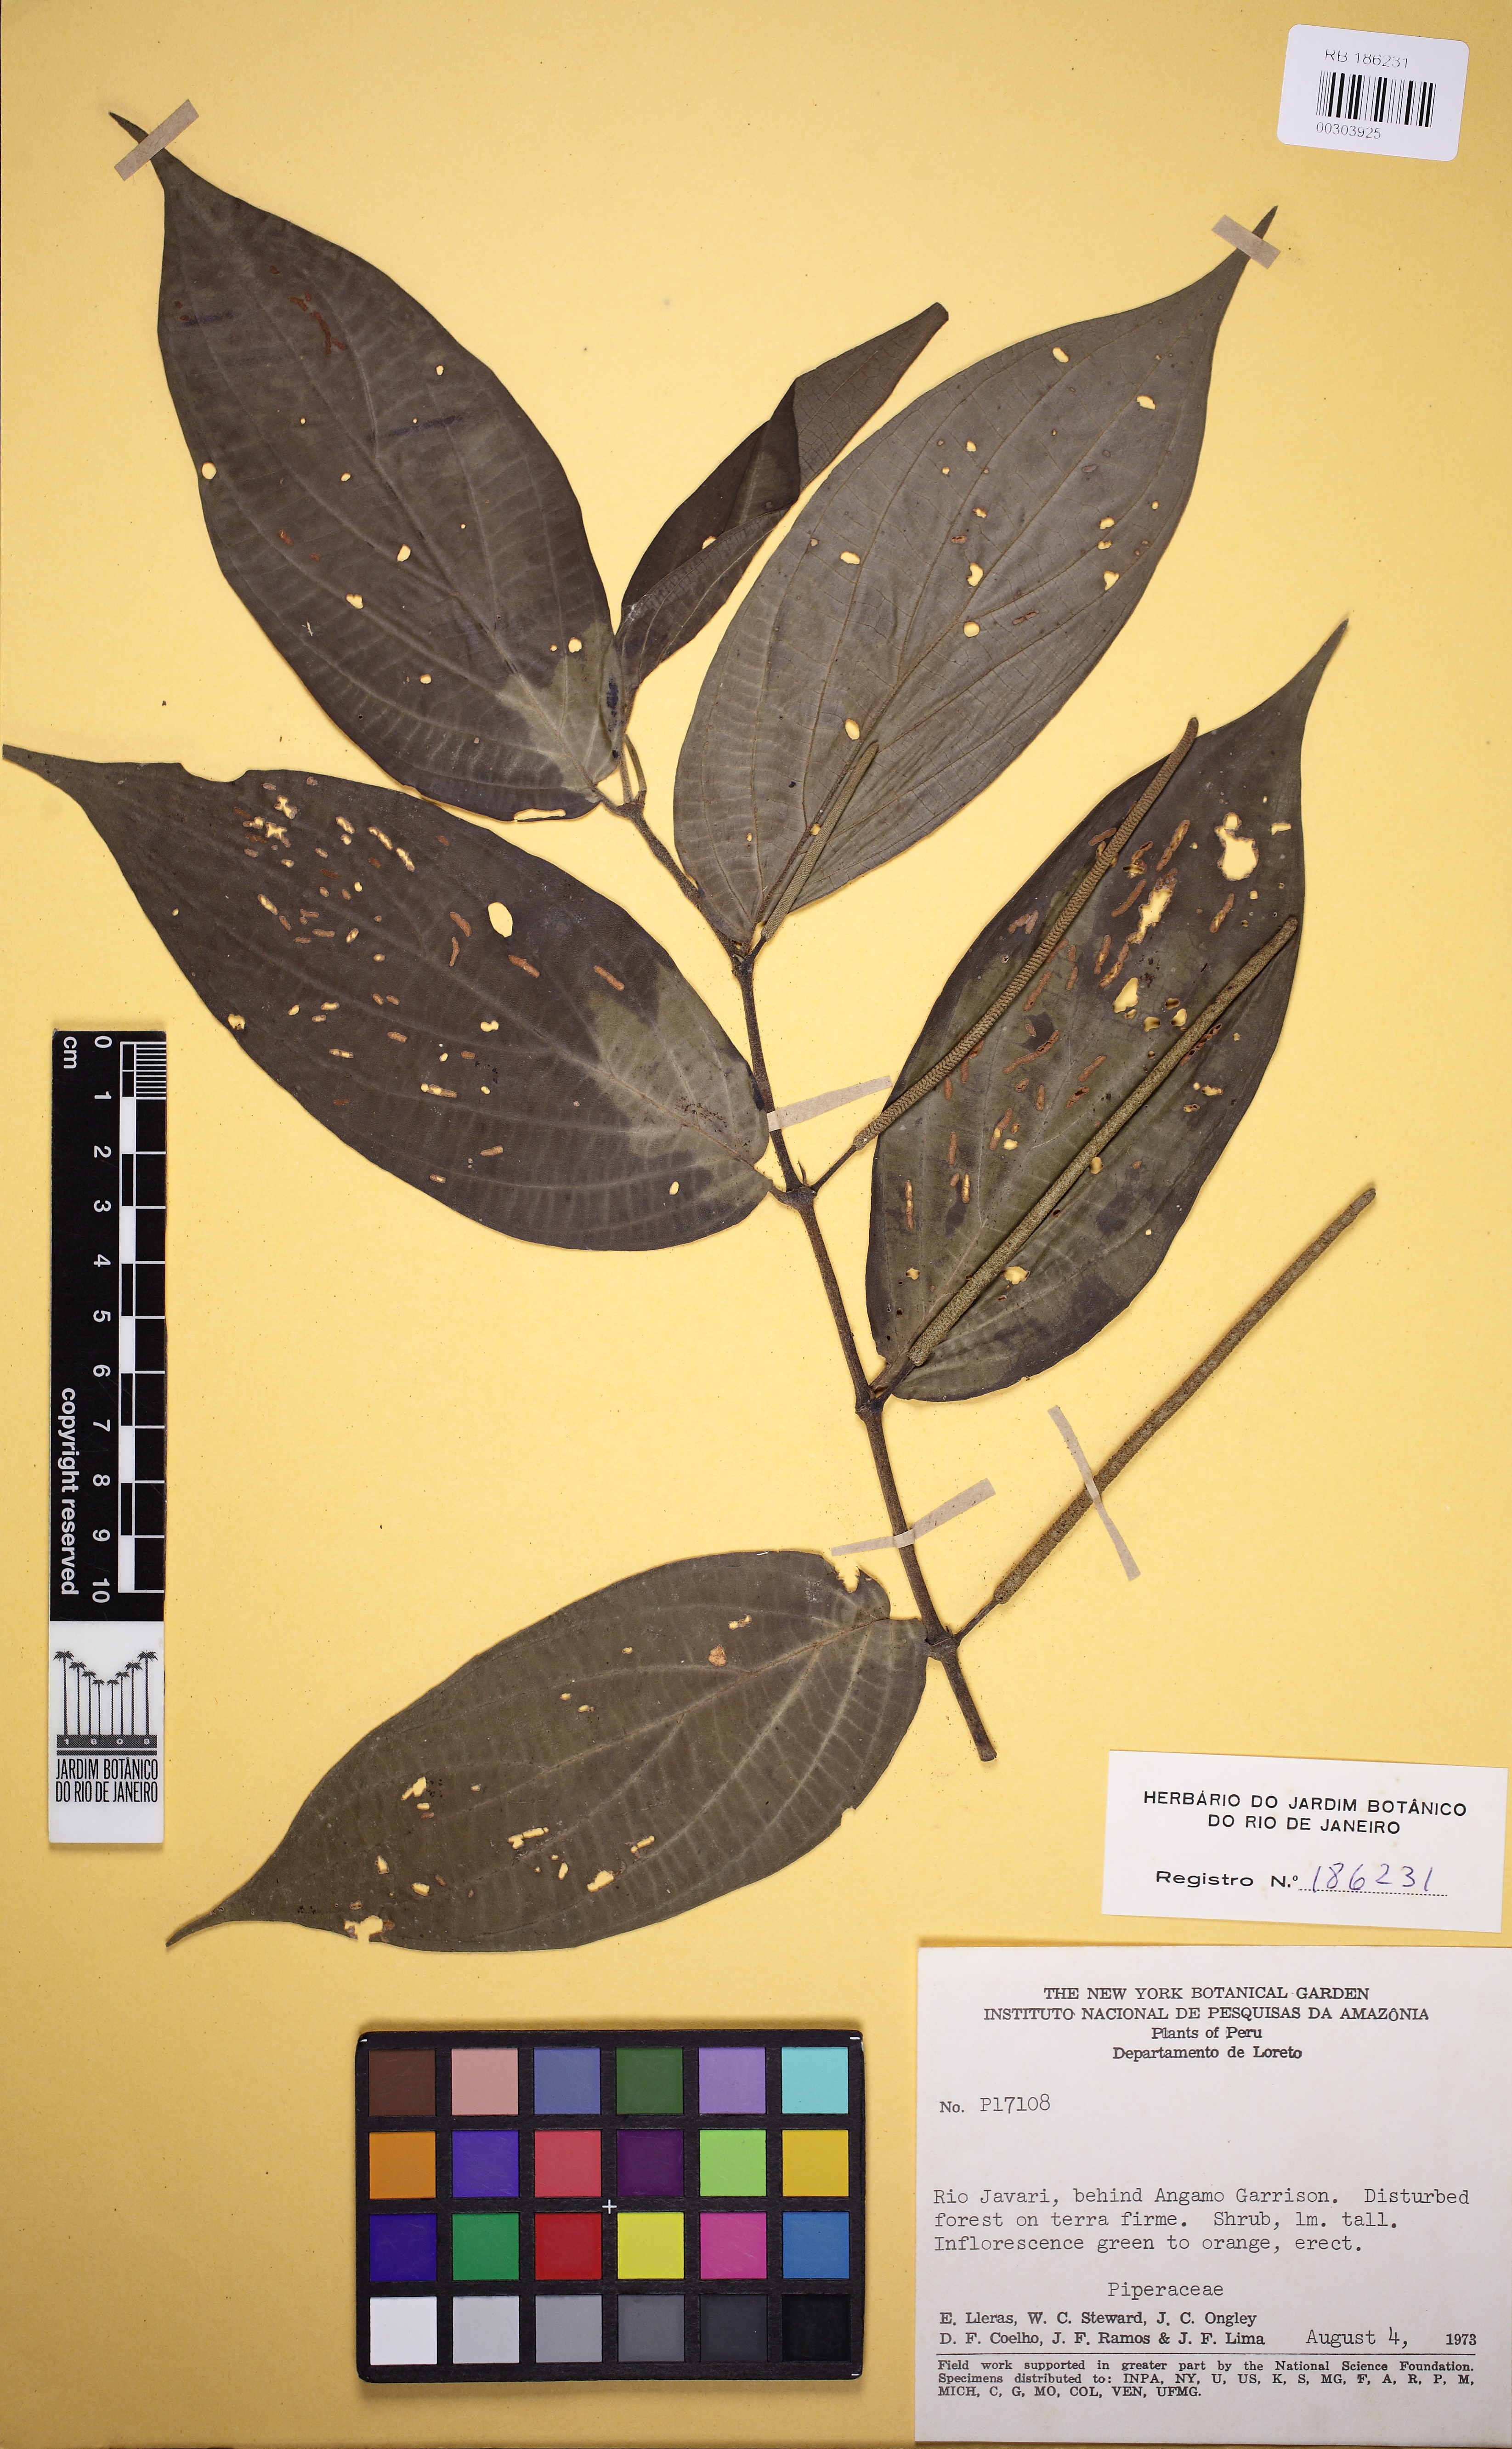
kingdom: Plantae
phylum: Tracheophyta
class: Magnoliopsida
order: Piperales
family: Piperaceae
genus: Piper
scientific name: Piper hispidum
